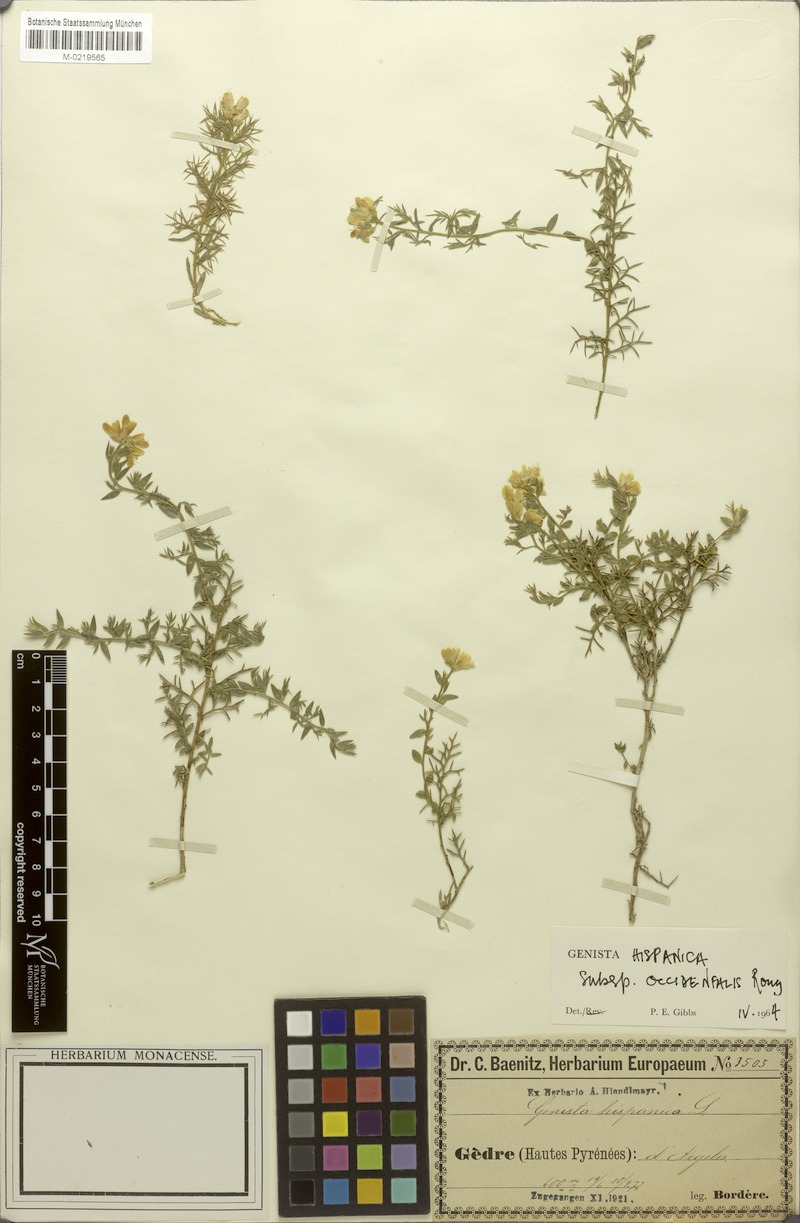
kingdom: Plantae
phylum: Tracheophyta
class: Magnoliopsida
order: Fabales
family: Fabaceae
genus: Genista
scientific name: Genista hispanica
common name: Spanish gorse
